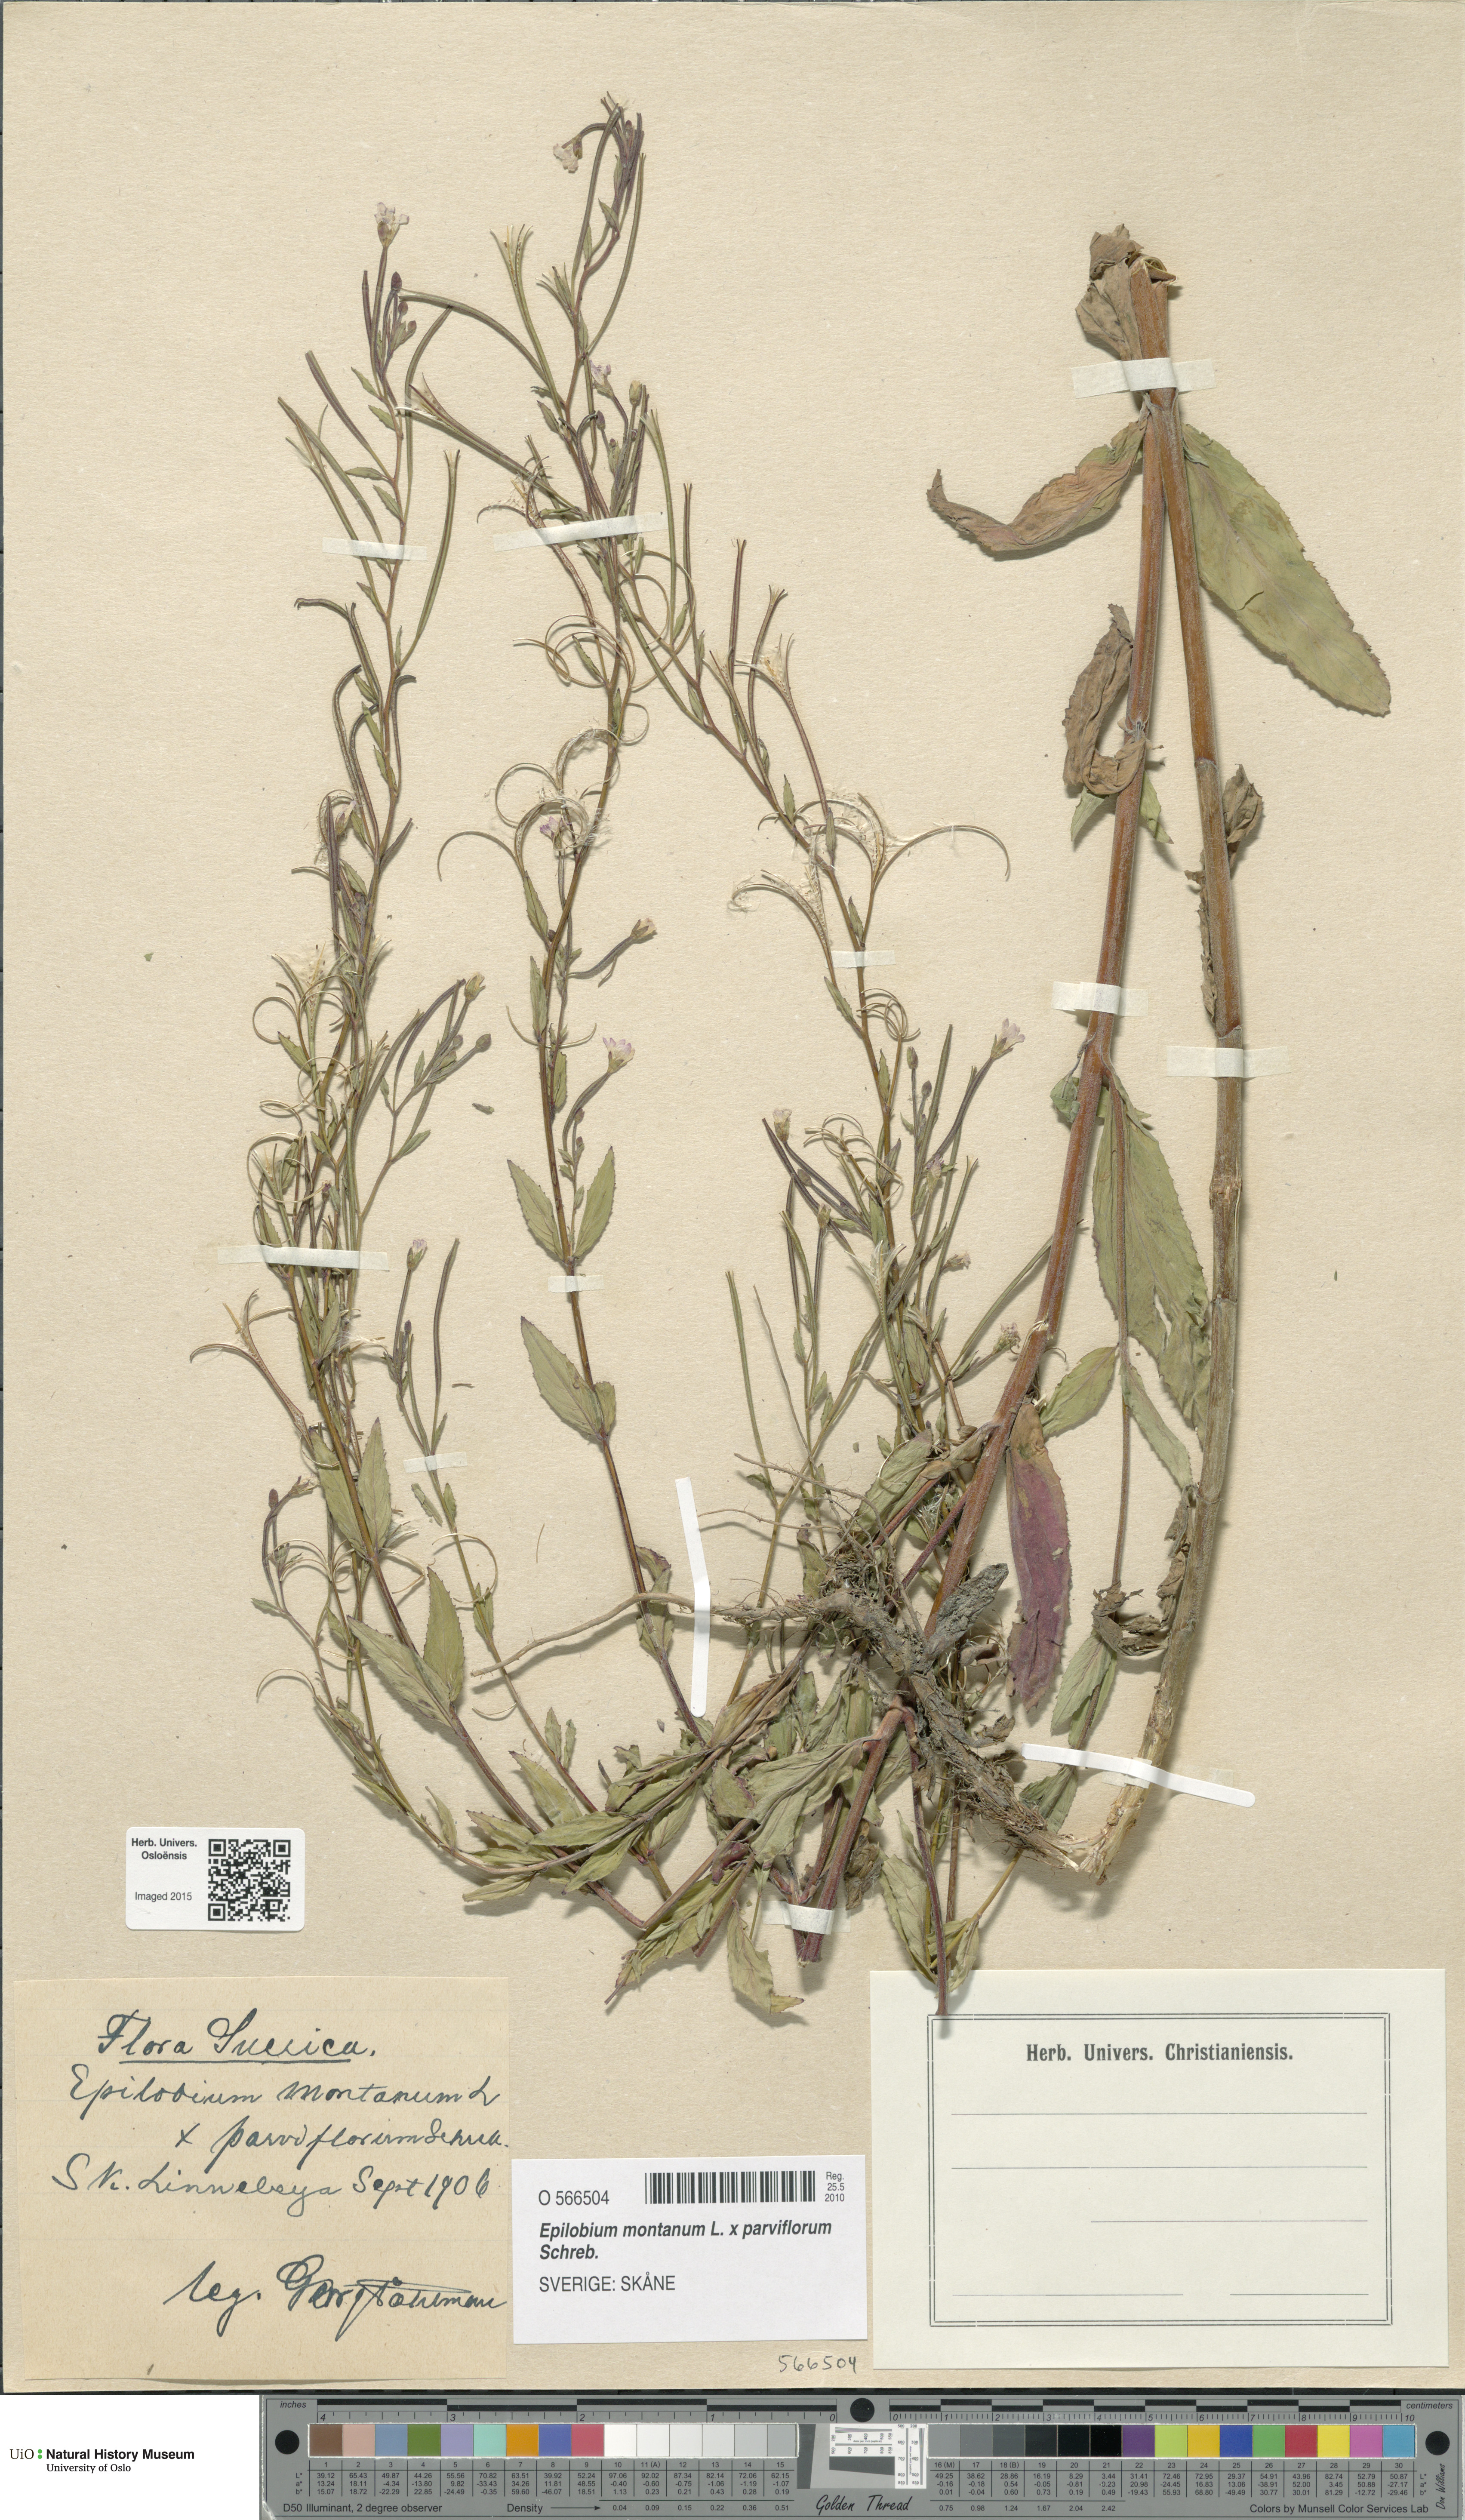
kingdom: Plantae
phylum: Tracheophyta
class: Magnoliopsida
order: Myrtales
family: Onagraceae
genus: Epilobium
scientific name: Epilobium
